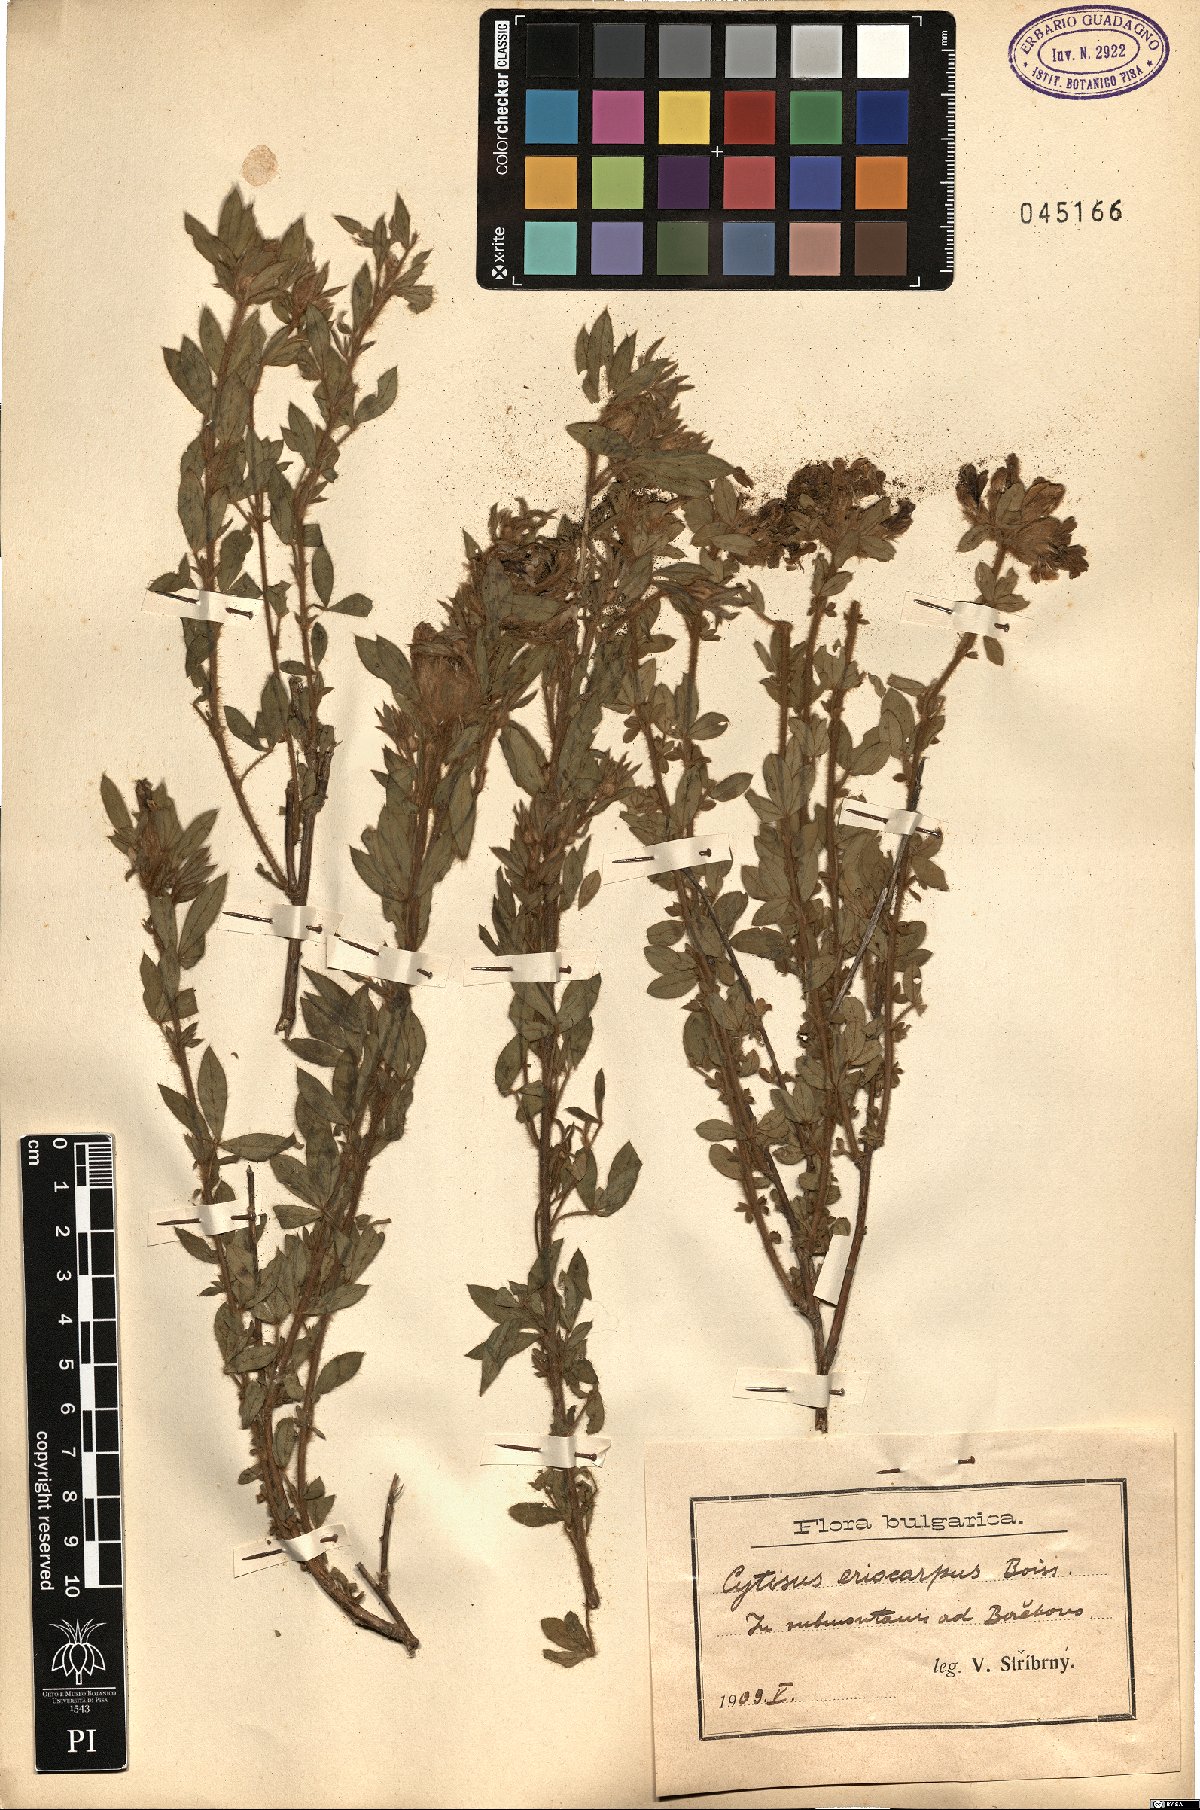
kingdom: Plantae
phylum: Tracheophyta
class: Magnoliopsida
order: Fabales
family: Fabaceae
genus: Chamaecytisus
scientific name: Chamaecytisus eriocarpus
